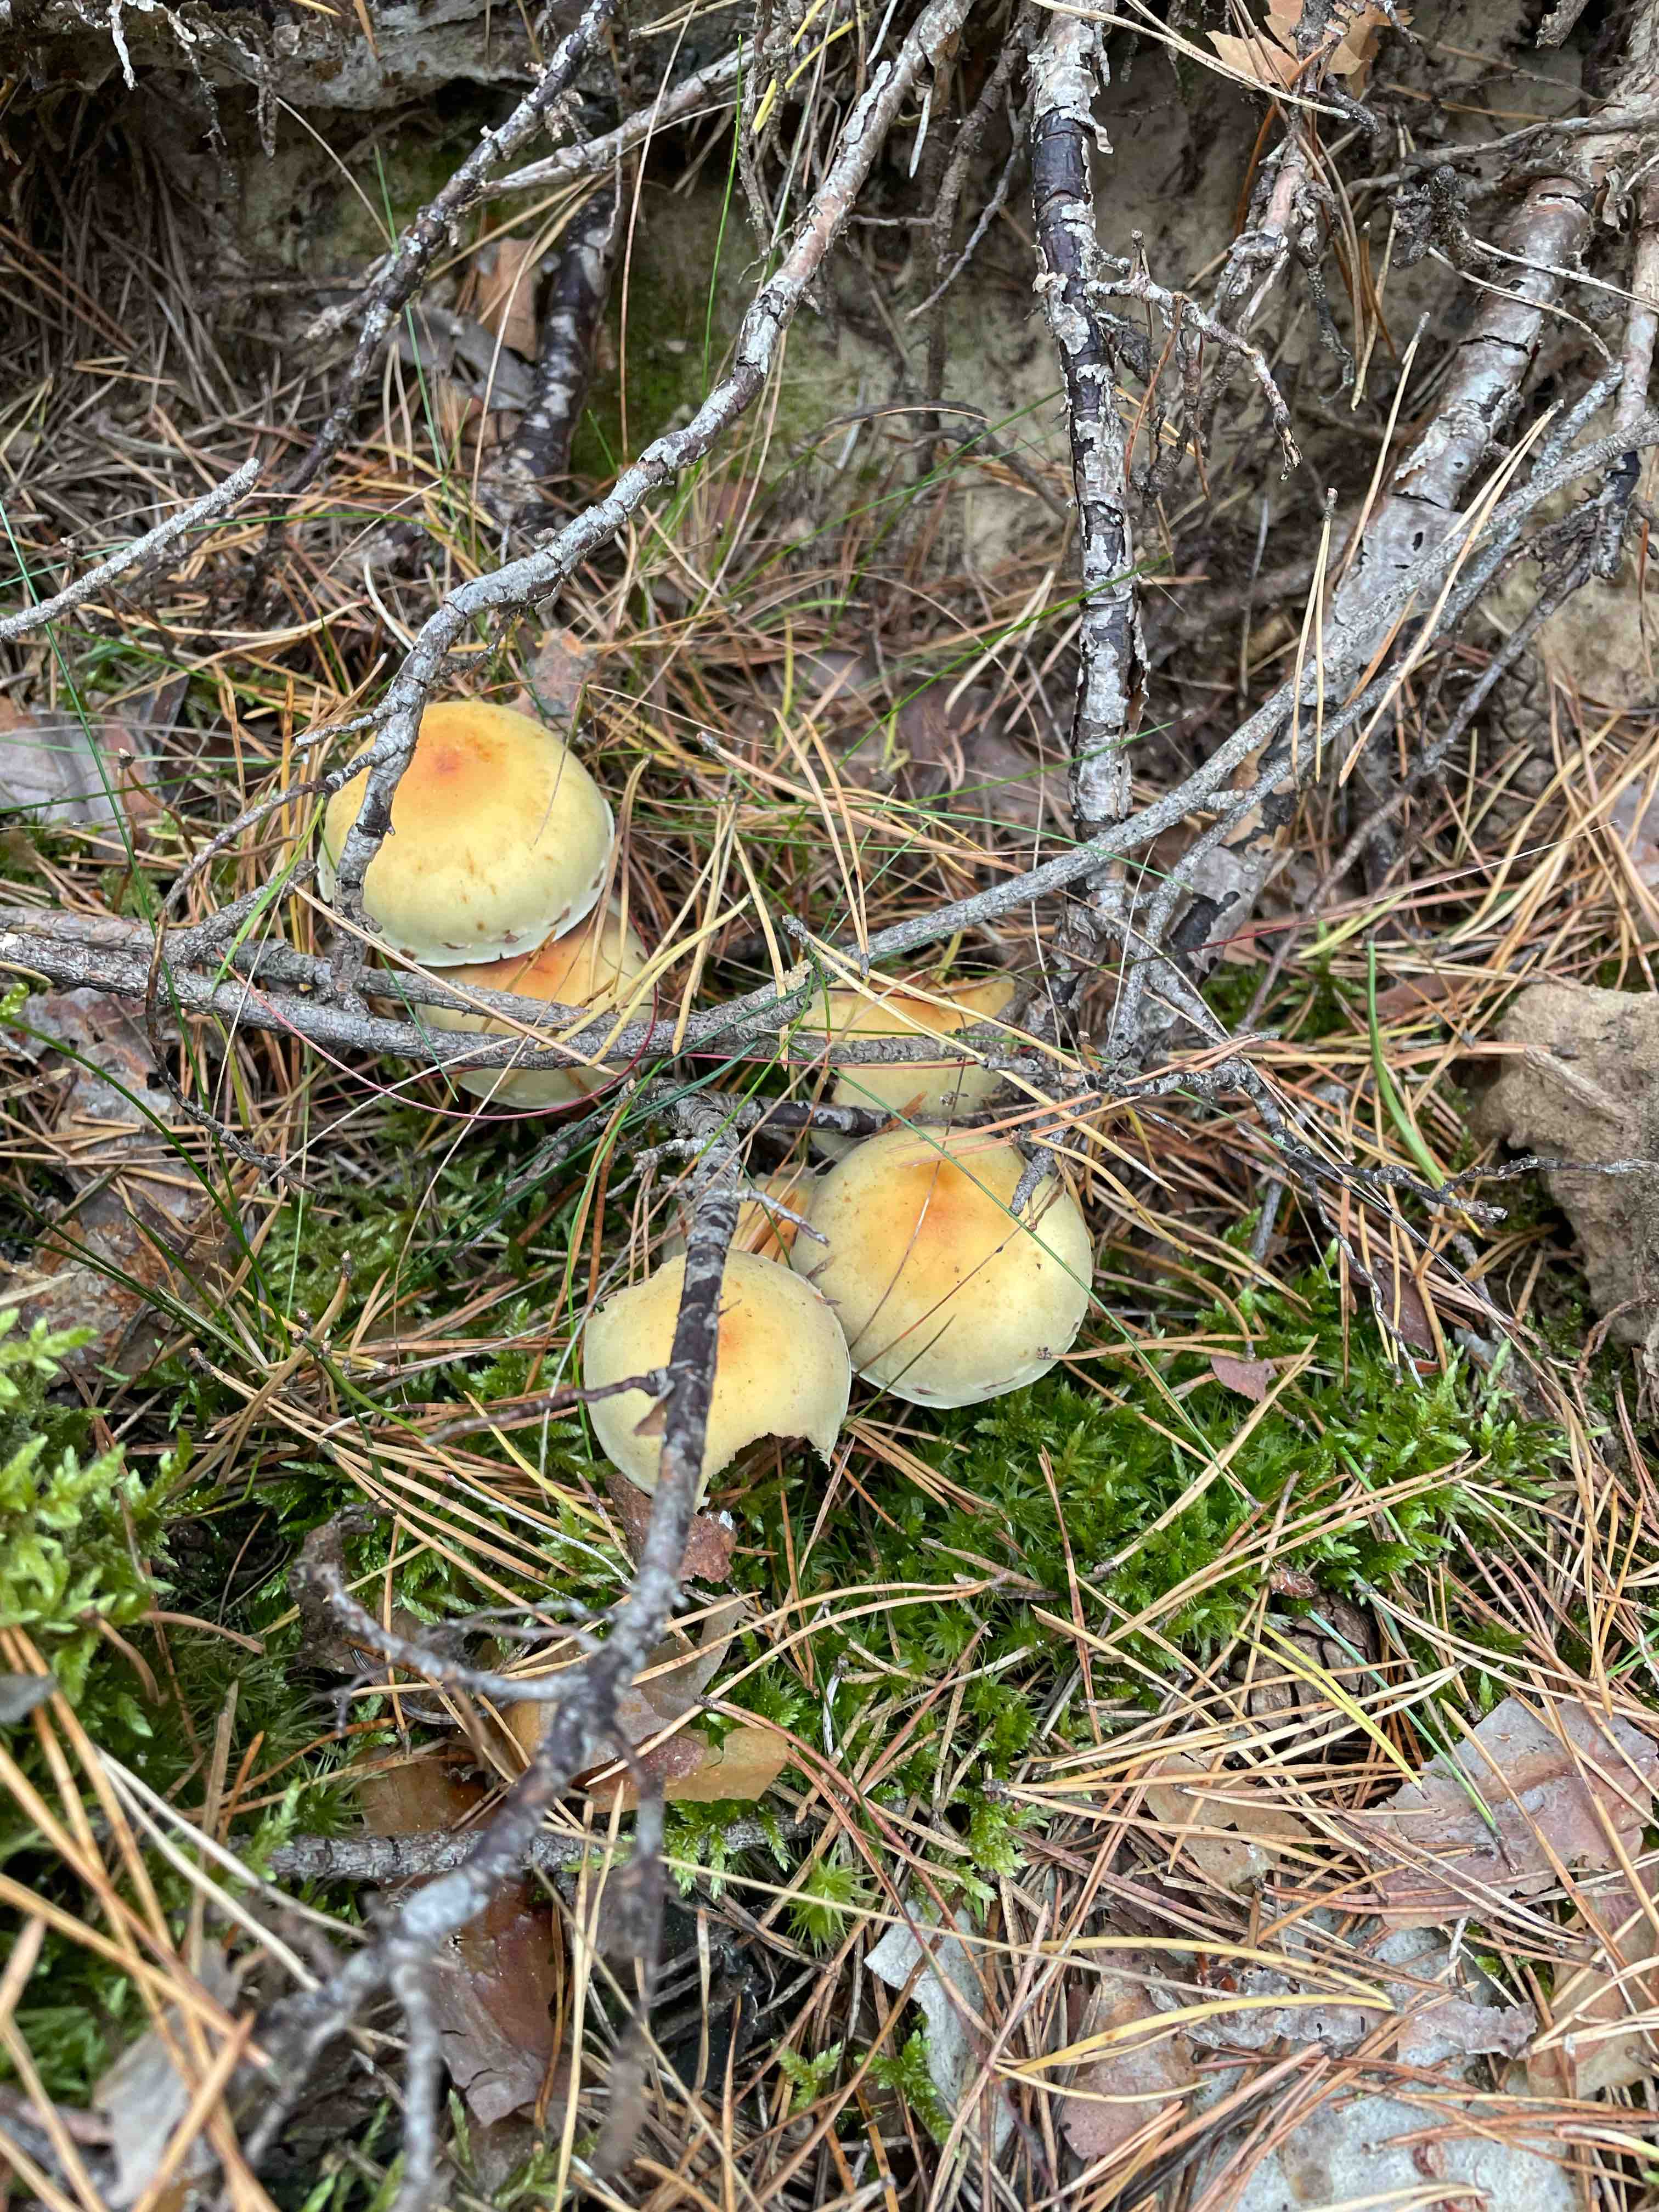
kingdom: Fungi
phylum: Basidiomycota
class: Agaricomycetes
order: Agaricales
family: Strophariaceae
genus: Hypholoma
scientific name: Hypholoma
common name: svovlhat
